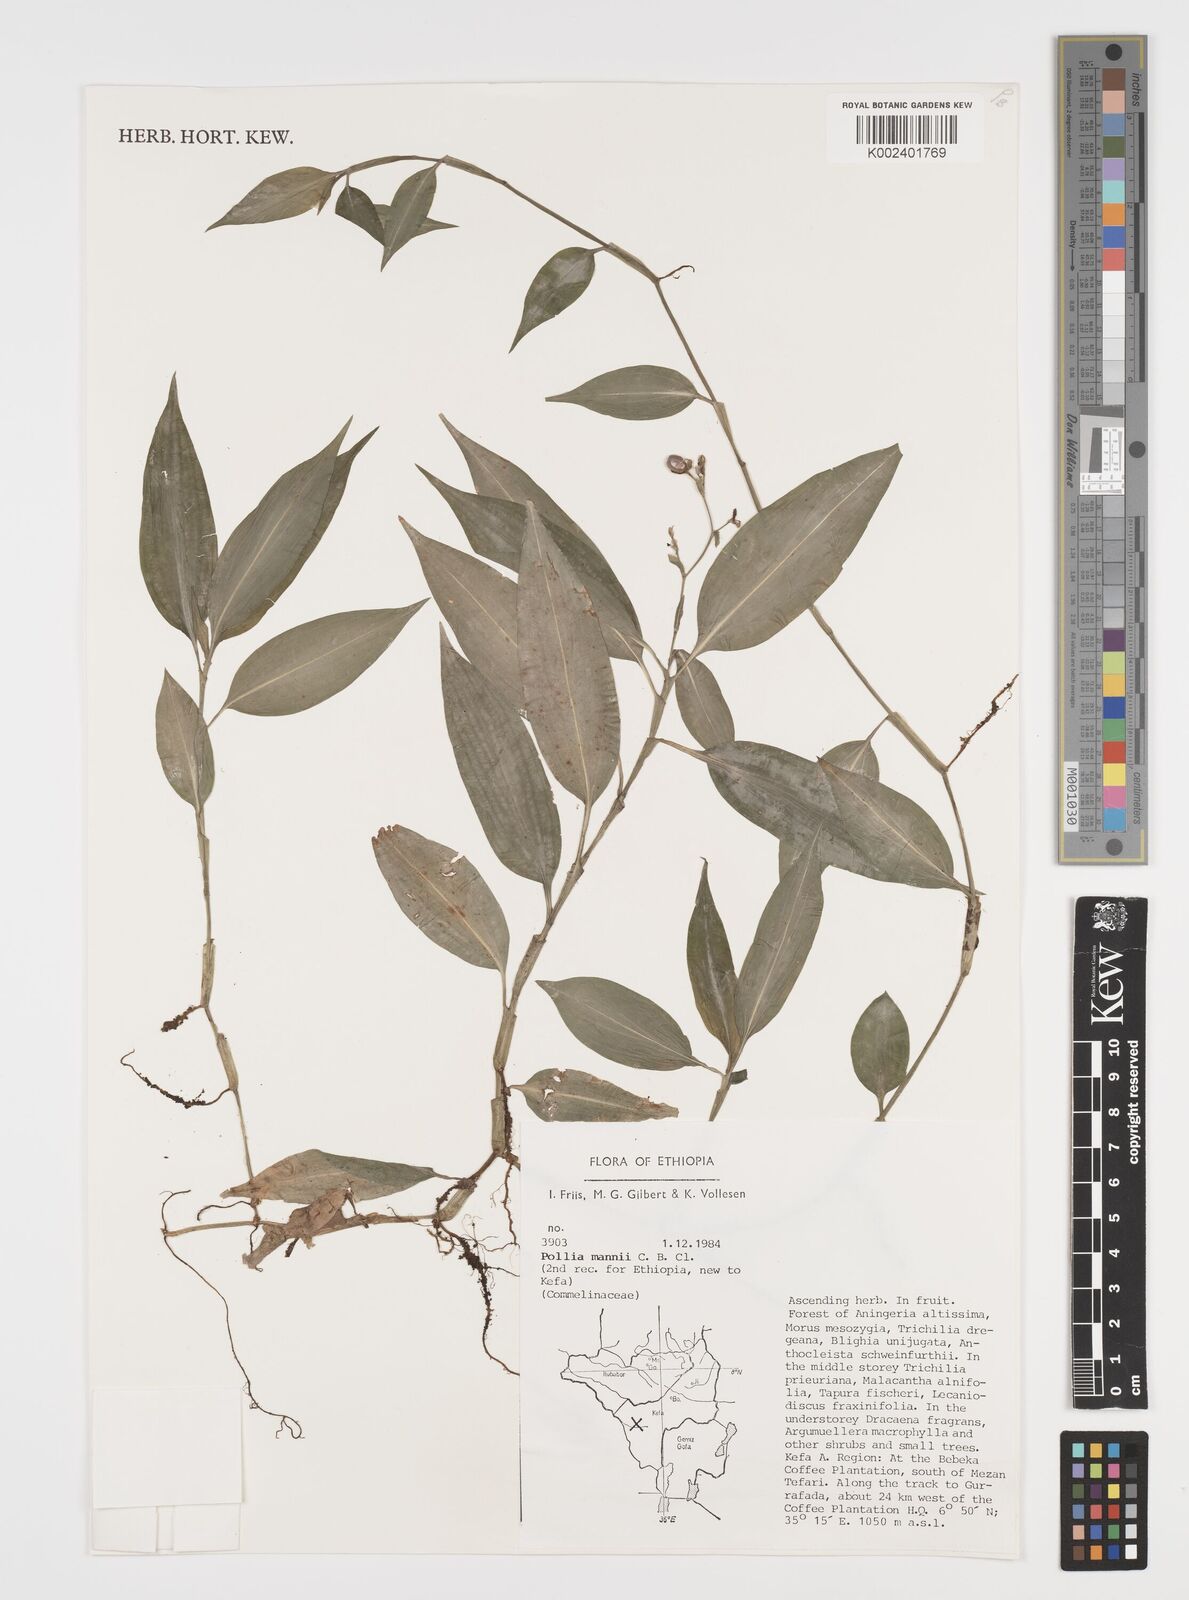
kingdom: Plantae
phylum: Tracheophyta
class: Liliopsida
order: Commelinales
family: Commelinaceae
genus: Pollia
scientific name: Pollia mannii
